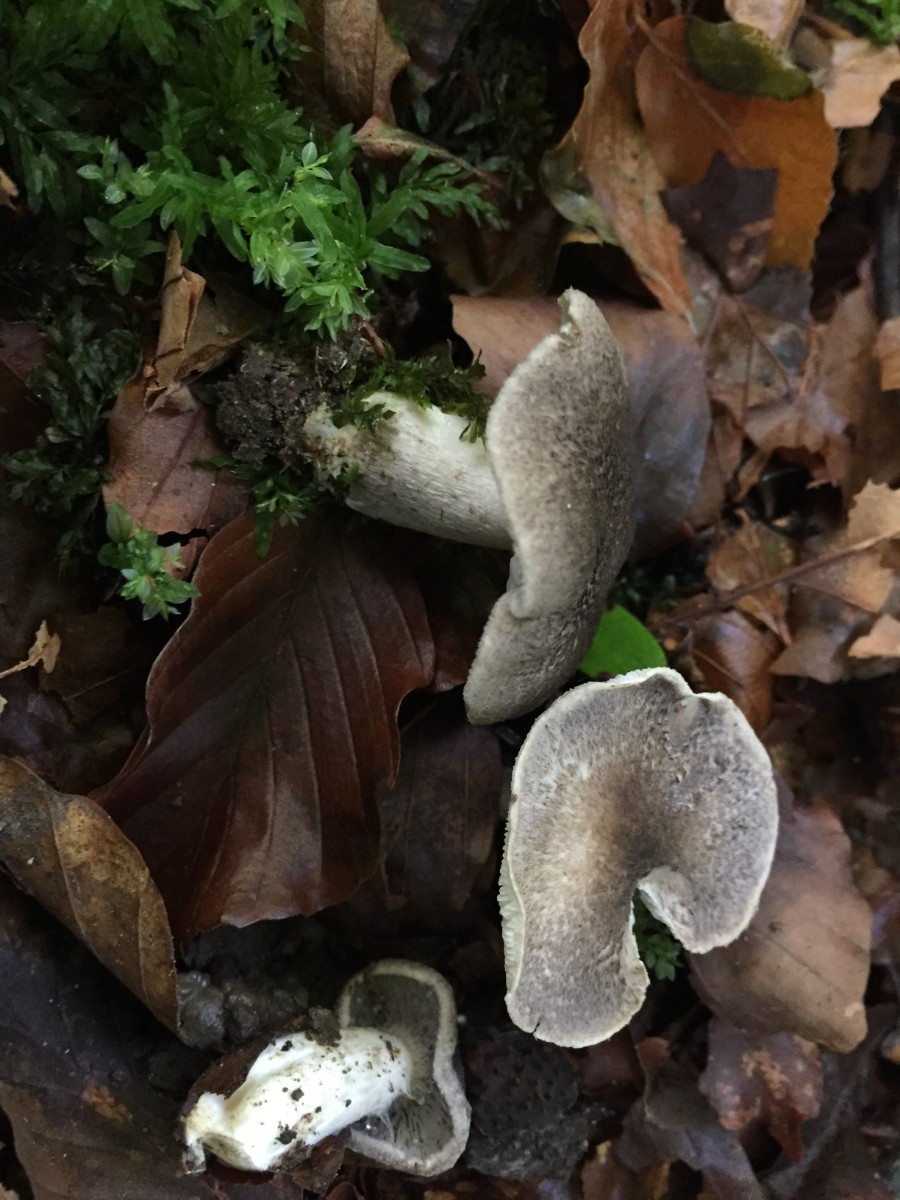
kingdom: Fungi
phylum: Basidiomycota
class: Agaricomycetes
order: Agaricales
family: Tricholomataceae
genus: Tricholoma
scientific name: Tricholoma scalpturatum
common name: gulplettet ridderhat
